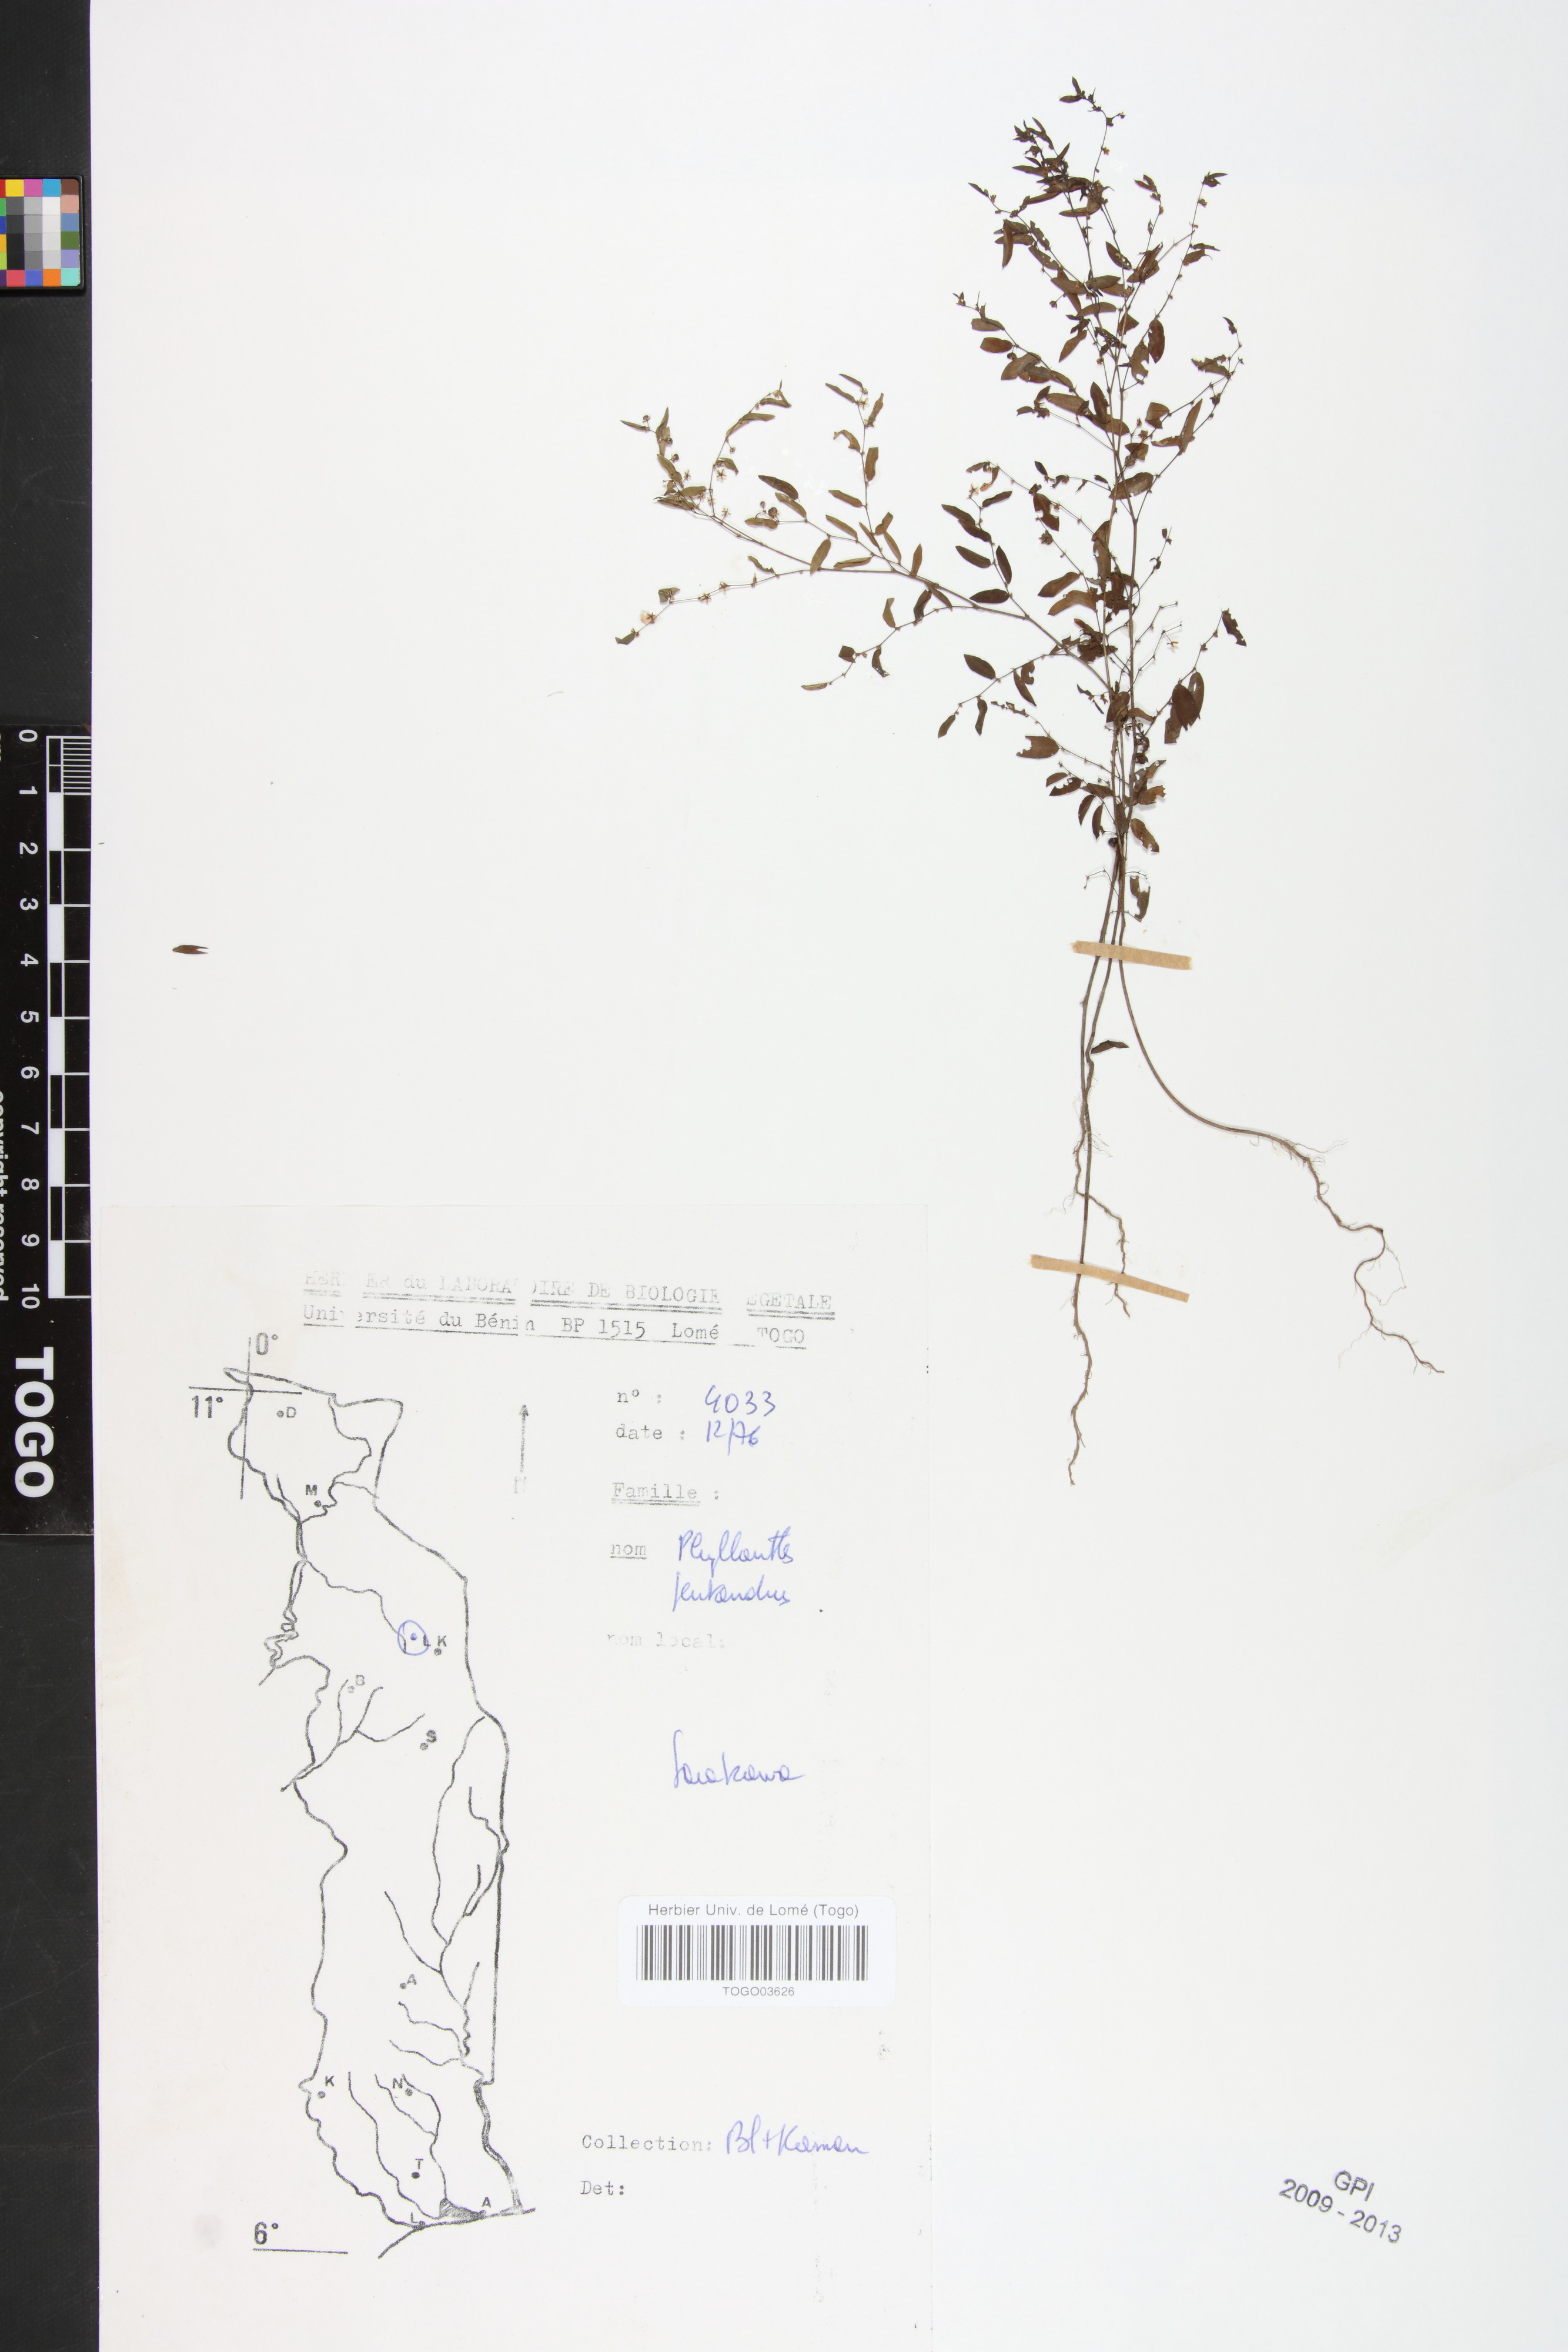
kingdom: Plantae
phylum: Tracheophyta
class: Magnoliopsida
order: Malpighiales
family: Phyllanthaceae
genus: Phyllanthus
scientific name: Phyllanthus pentandrus
